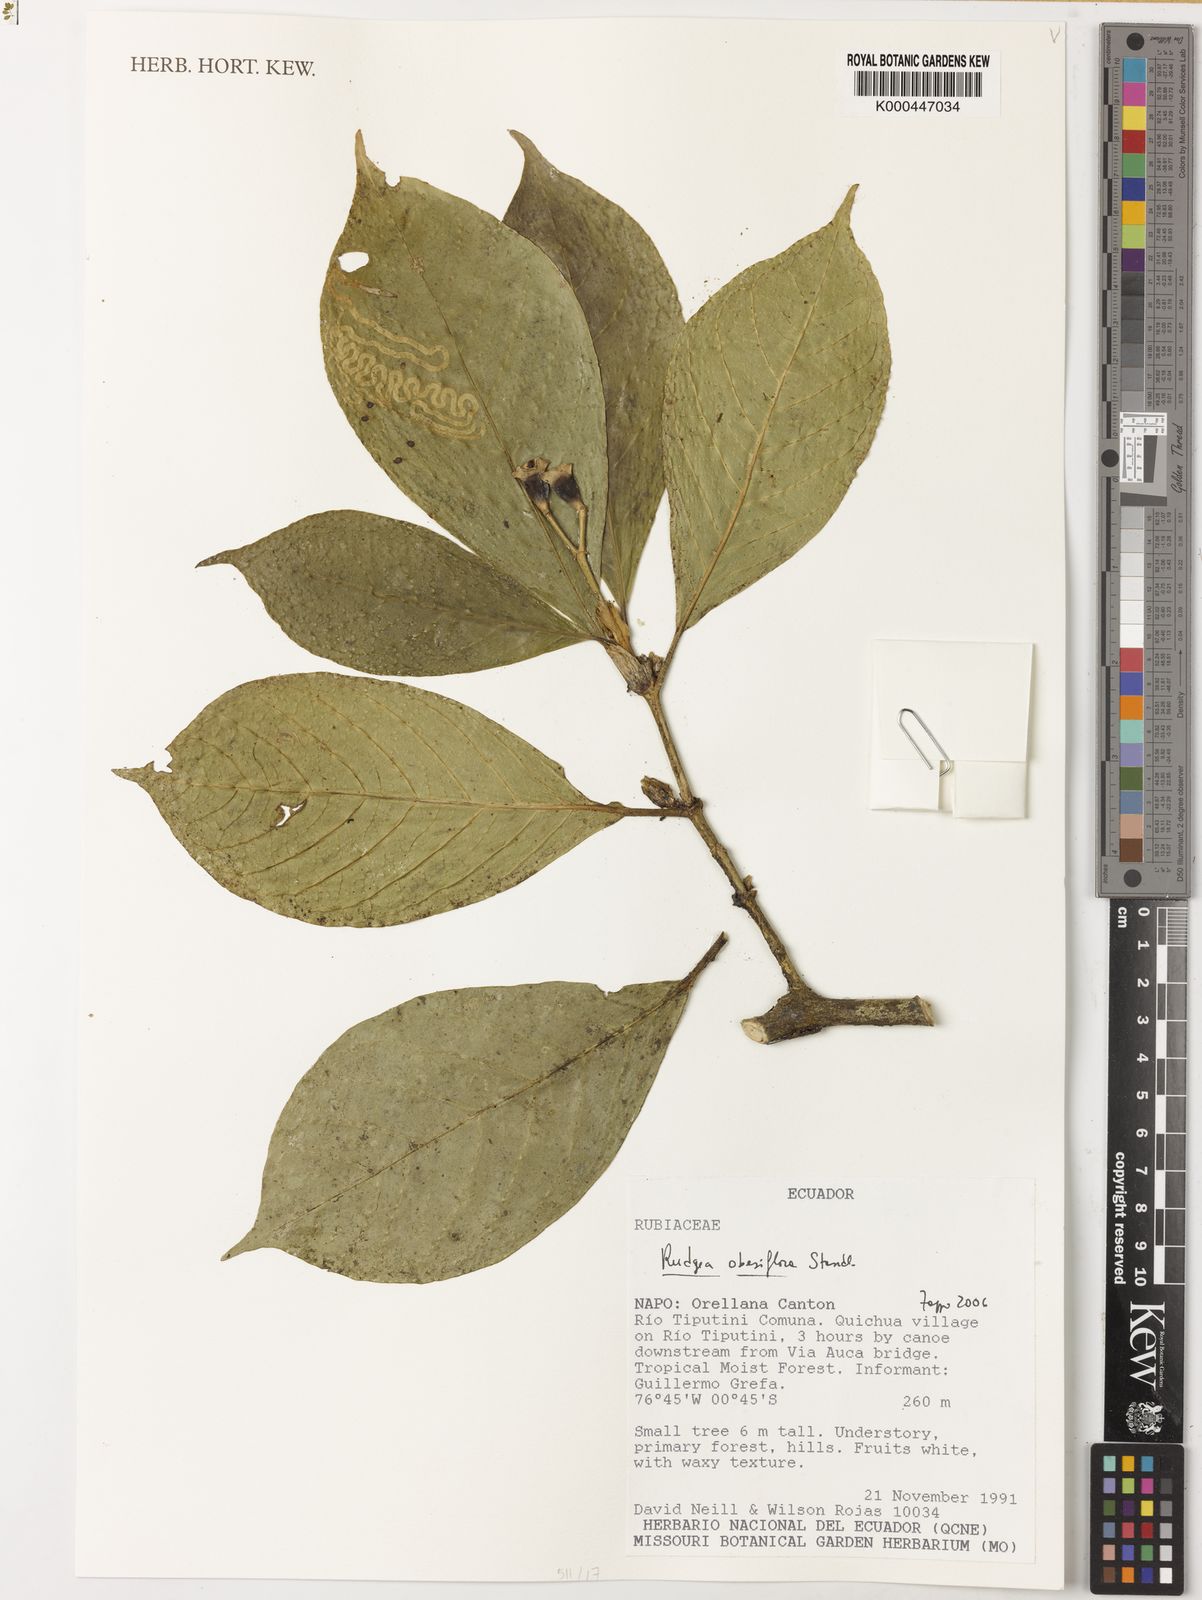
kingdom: Plantae
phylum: Tracheophyta
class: Magnoliopsida
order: Gentianales
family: Rubiaceae
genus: Rudgea
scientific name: Rudgea obesiflora
